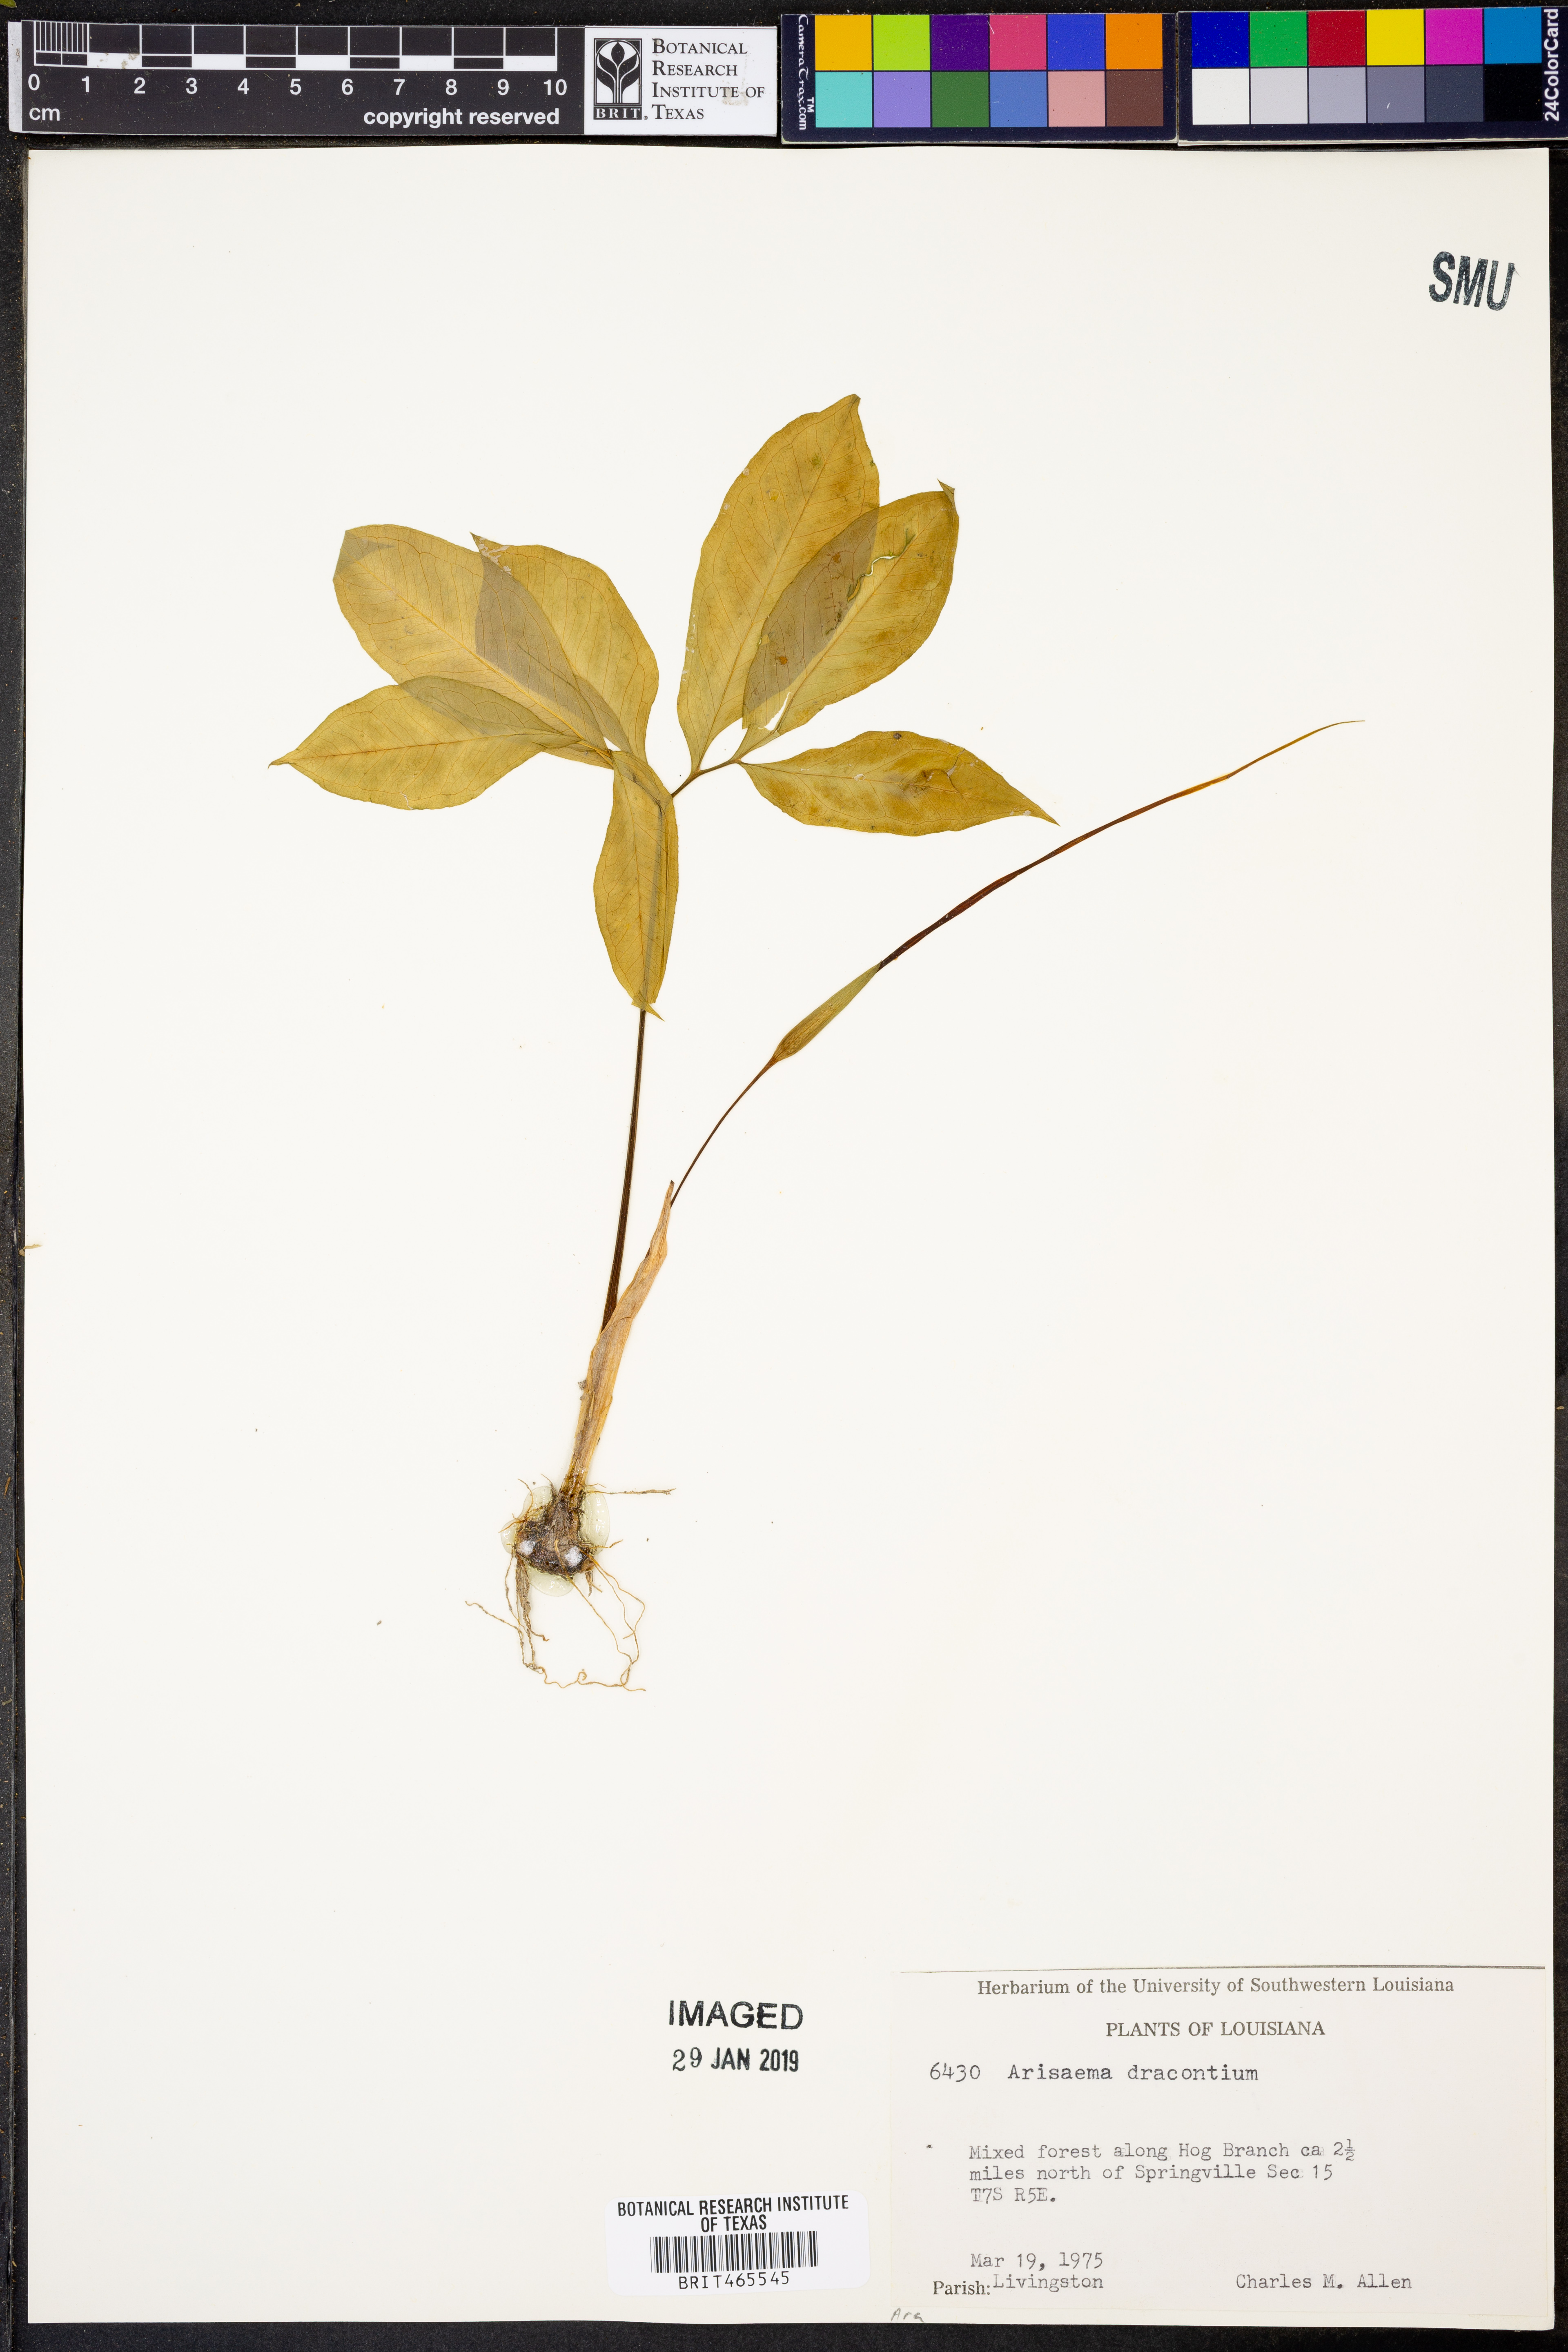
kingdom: Plantae
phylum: Tracheophyta
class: Liliopsida
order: Alismatales
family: Araceae
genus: Arisaema
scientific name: Arisaema dracontium
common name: Dragon-arum
